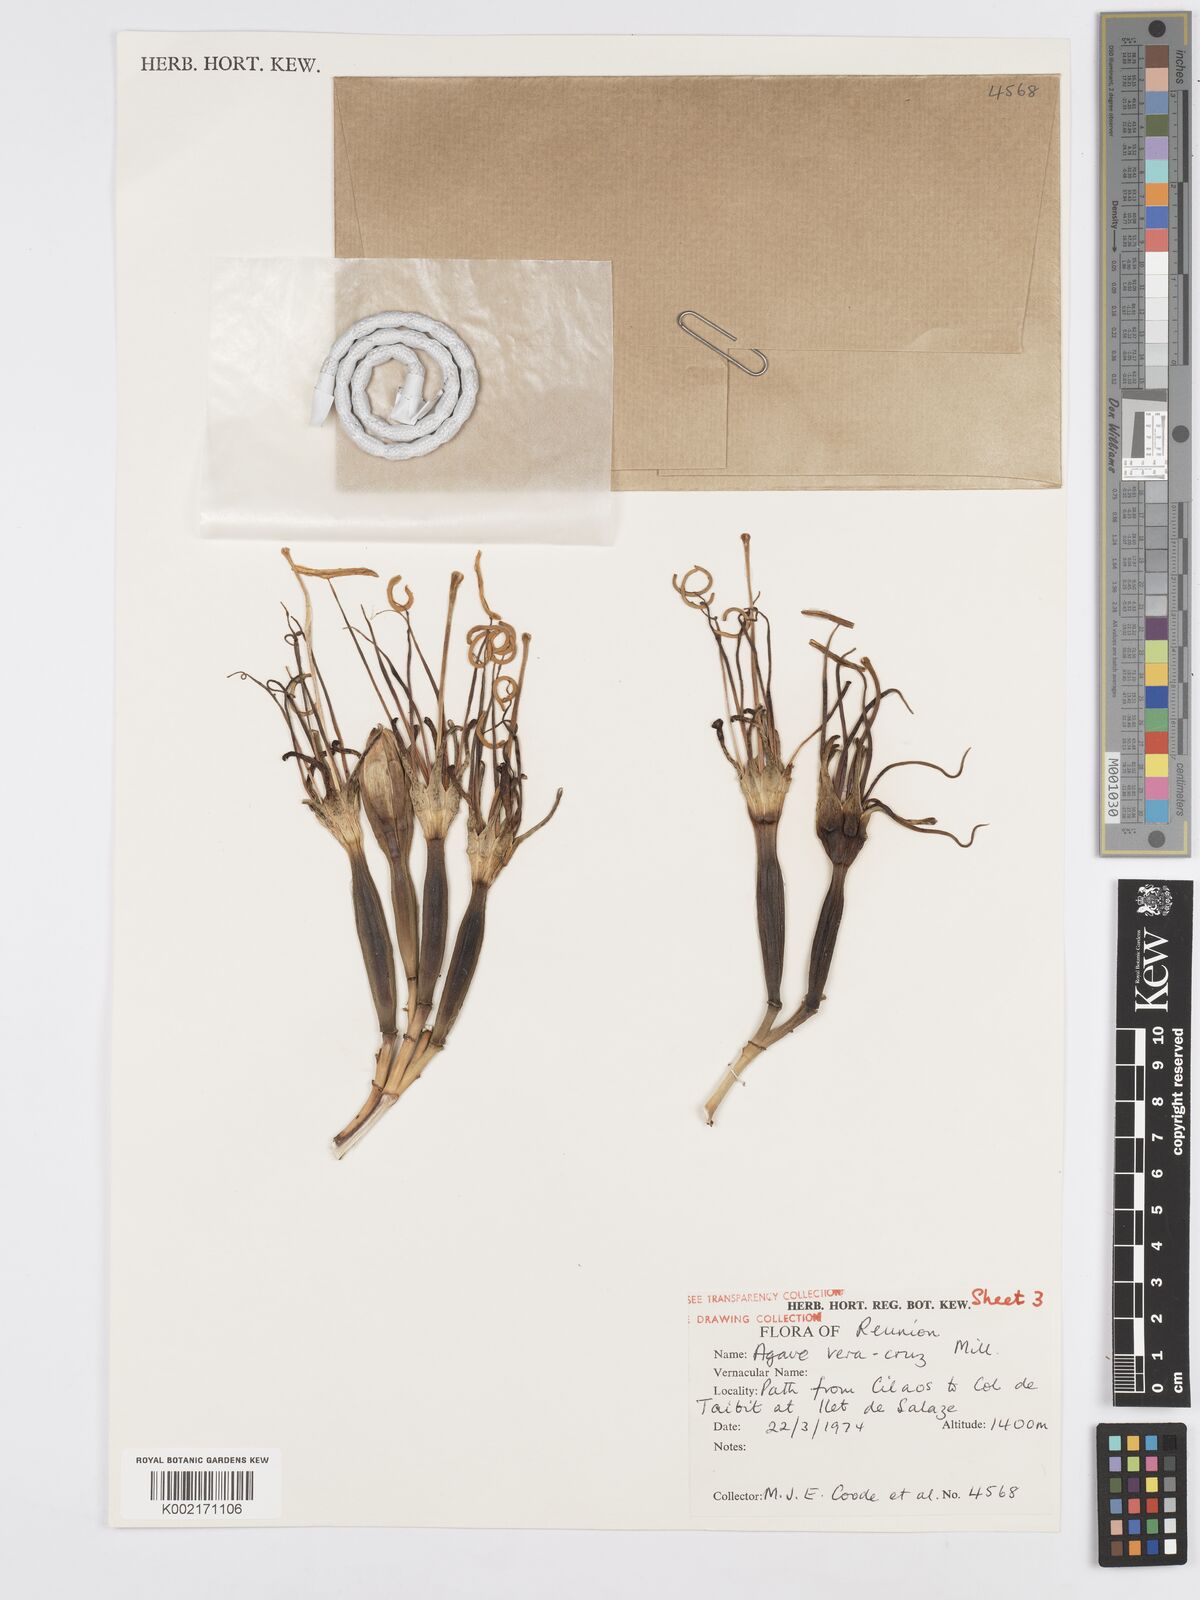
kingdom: Plantae
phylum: Tracheophyta
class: Liliopsida
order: Asparagales
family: Asparagaceae
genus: Agave
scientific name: Agave vera-cruz
